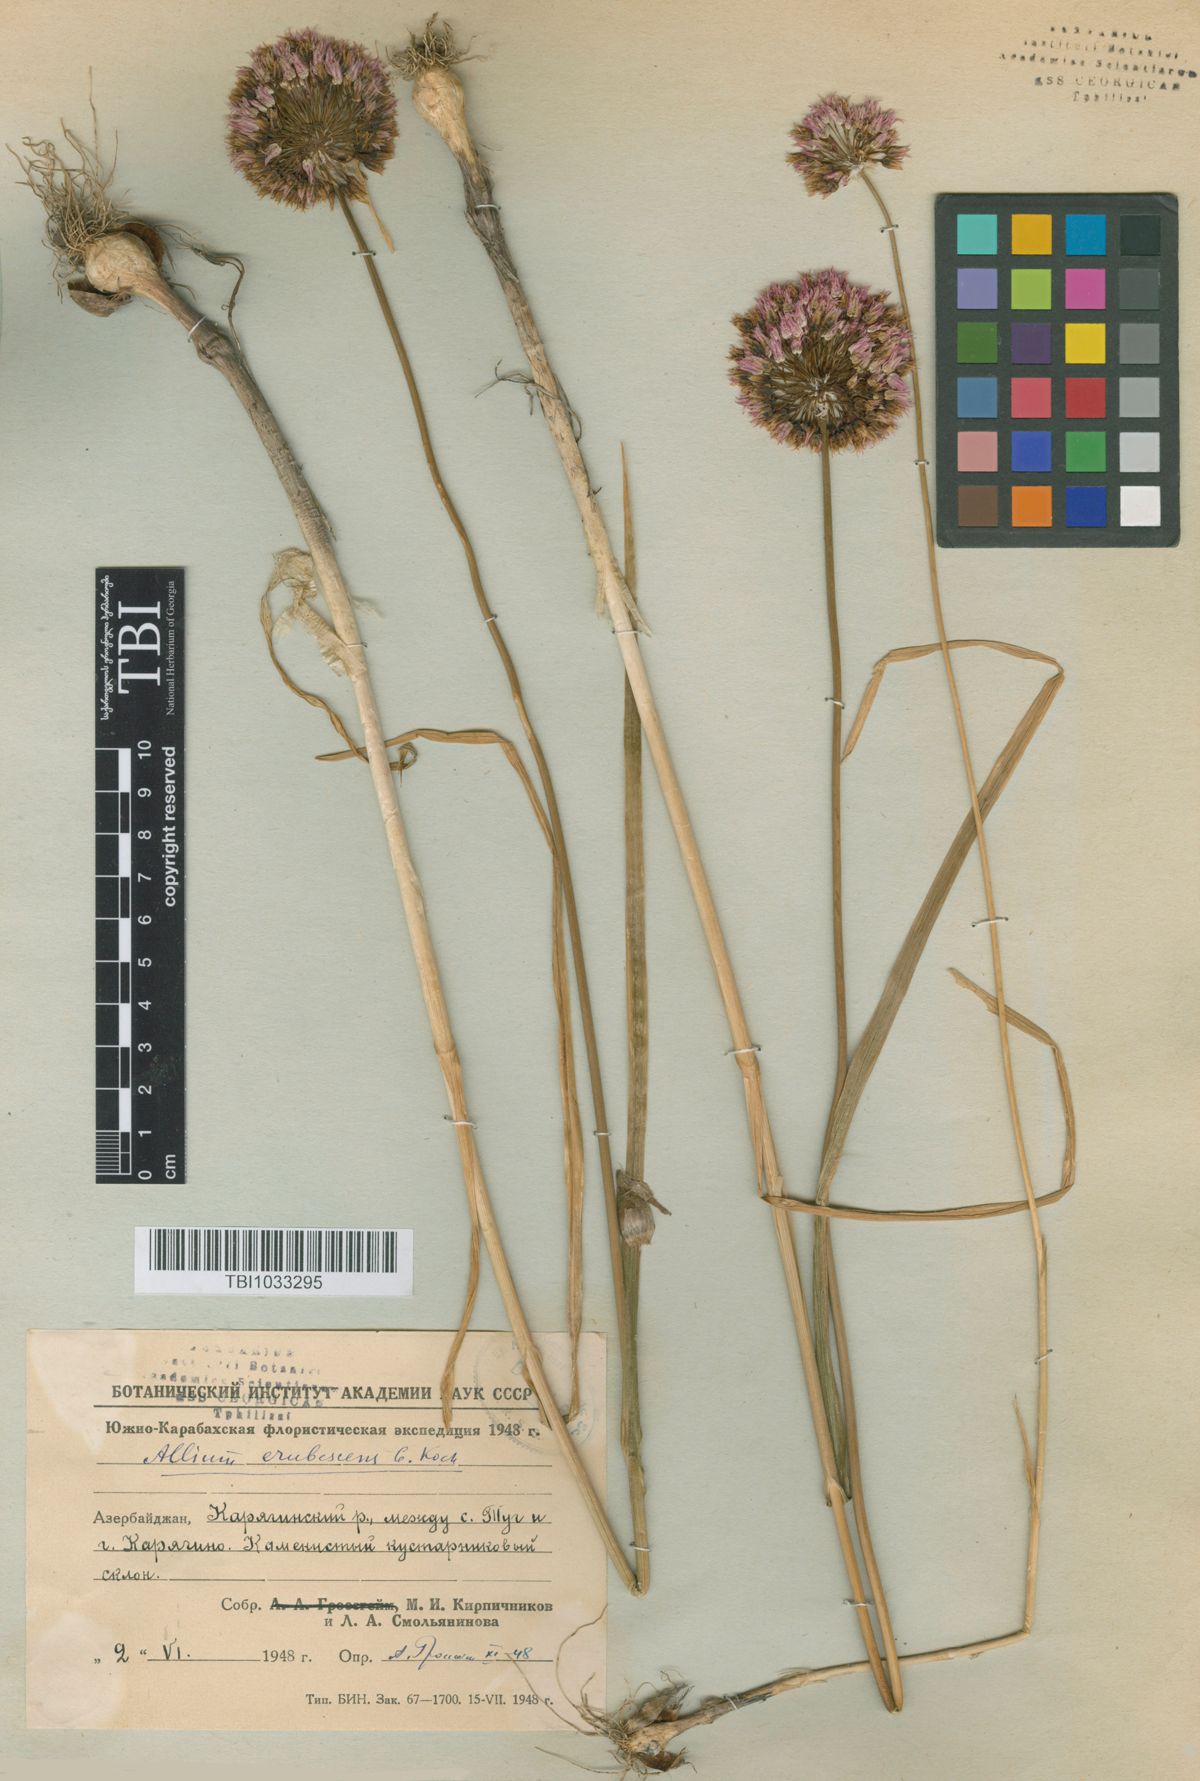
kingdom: Plantae
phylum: Tracheophyta
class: Liliopsida
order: Asparagales
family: Amaryllidaceae
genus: Allium
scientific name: Allium erubescens
